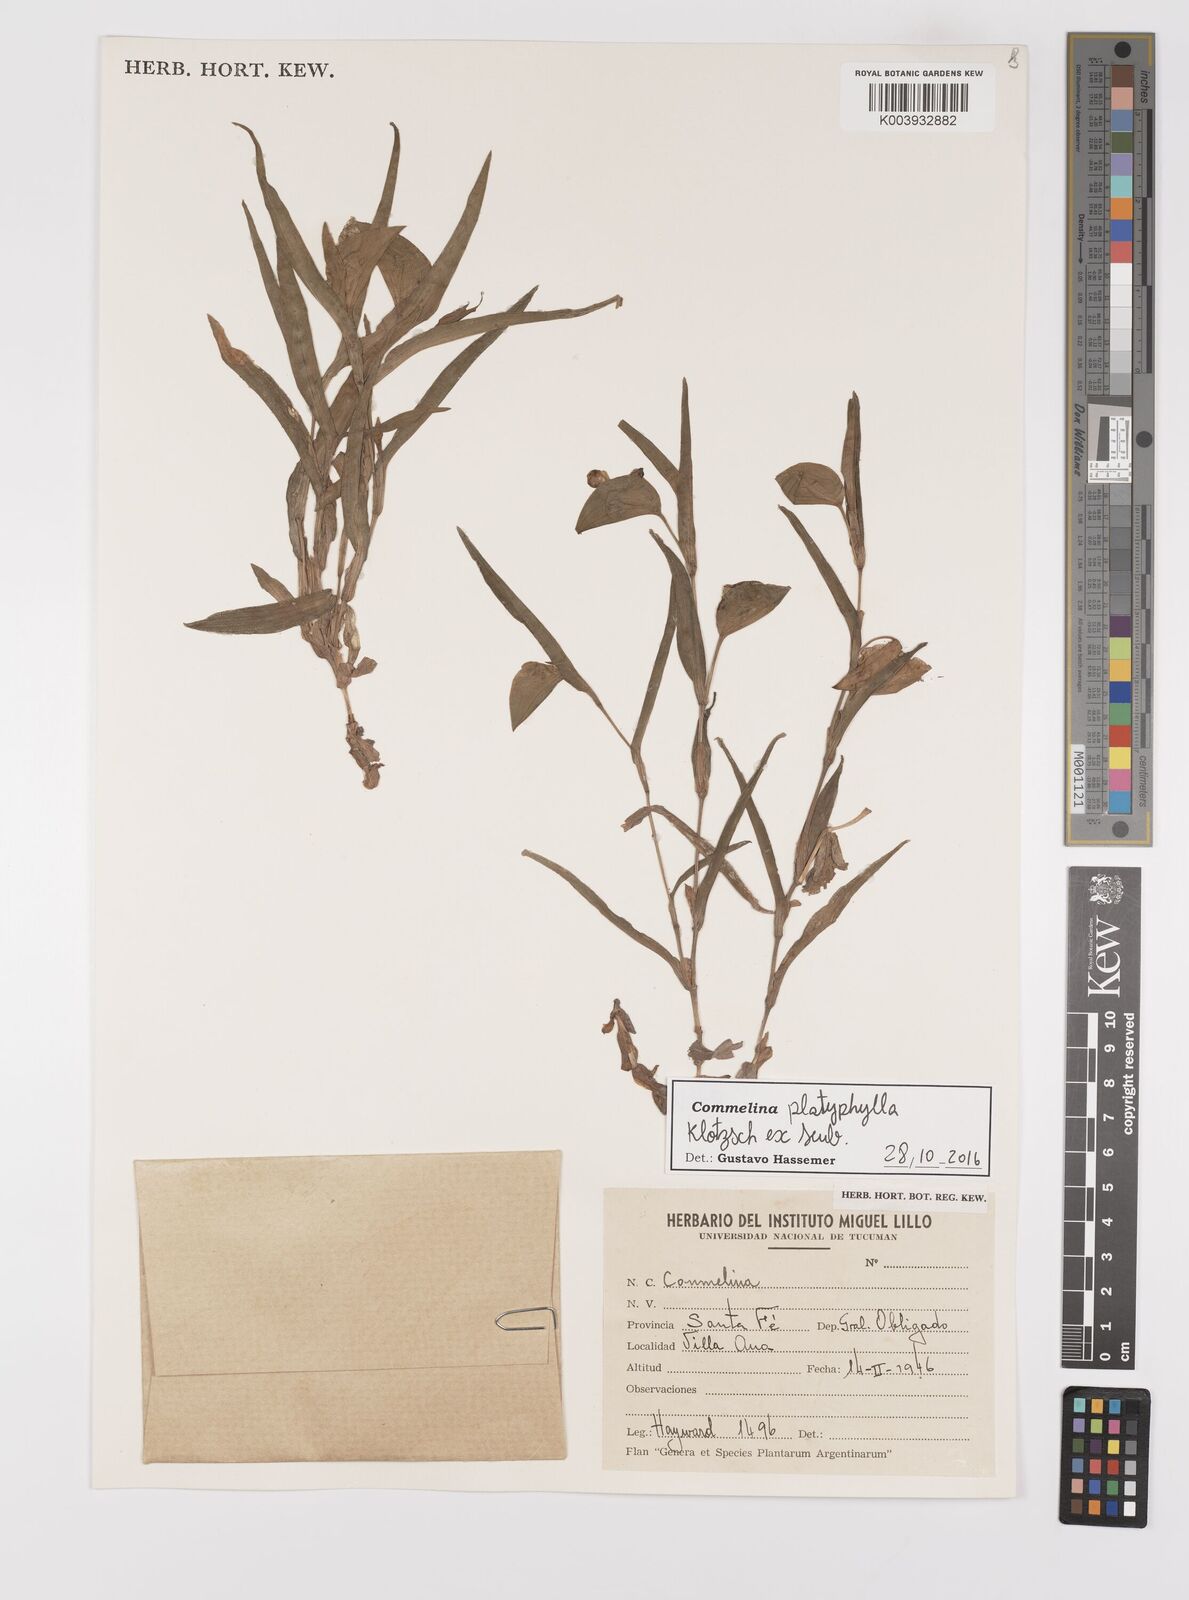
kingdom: Plantae
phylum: Tracheophyta
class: Liliopsida
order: Commelinales
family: Commelinaceae
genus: Commelina
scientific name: Commelina platyphylla
